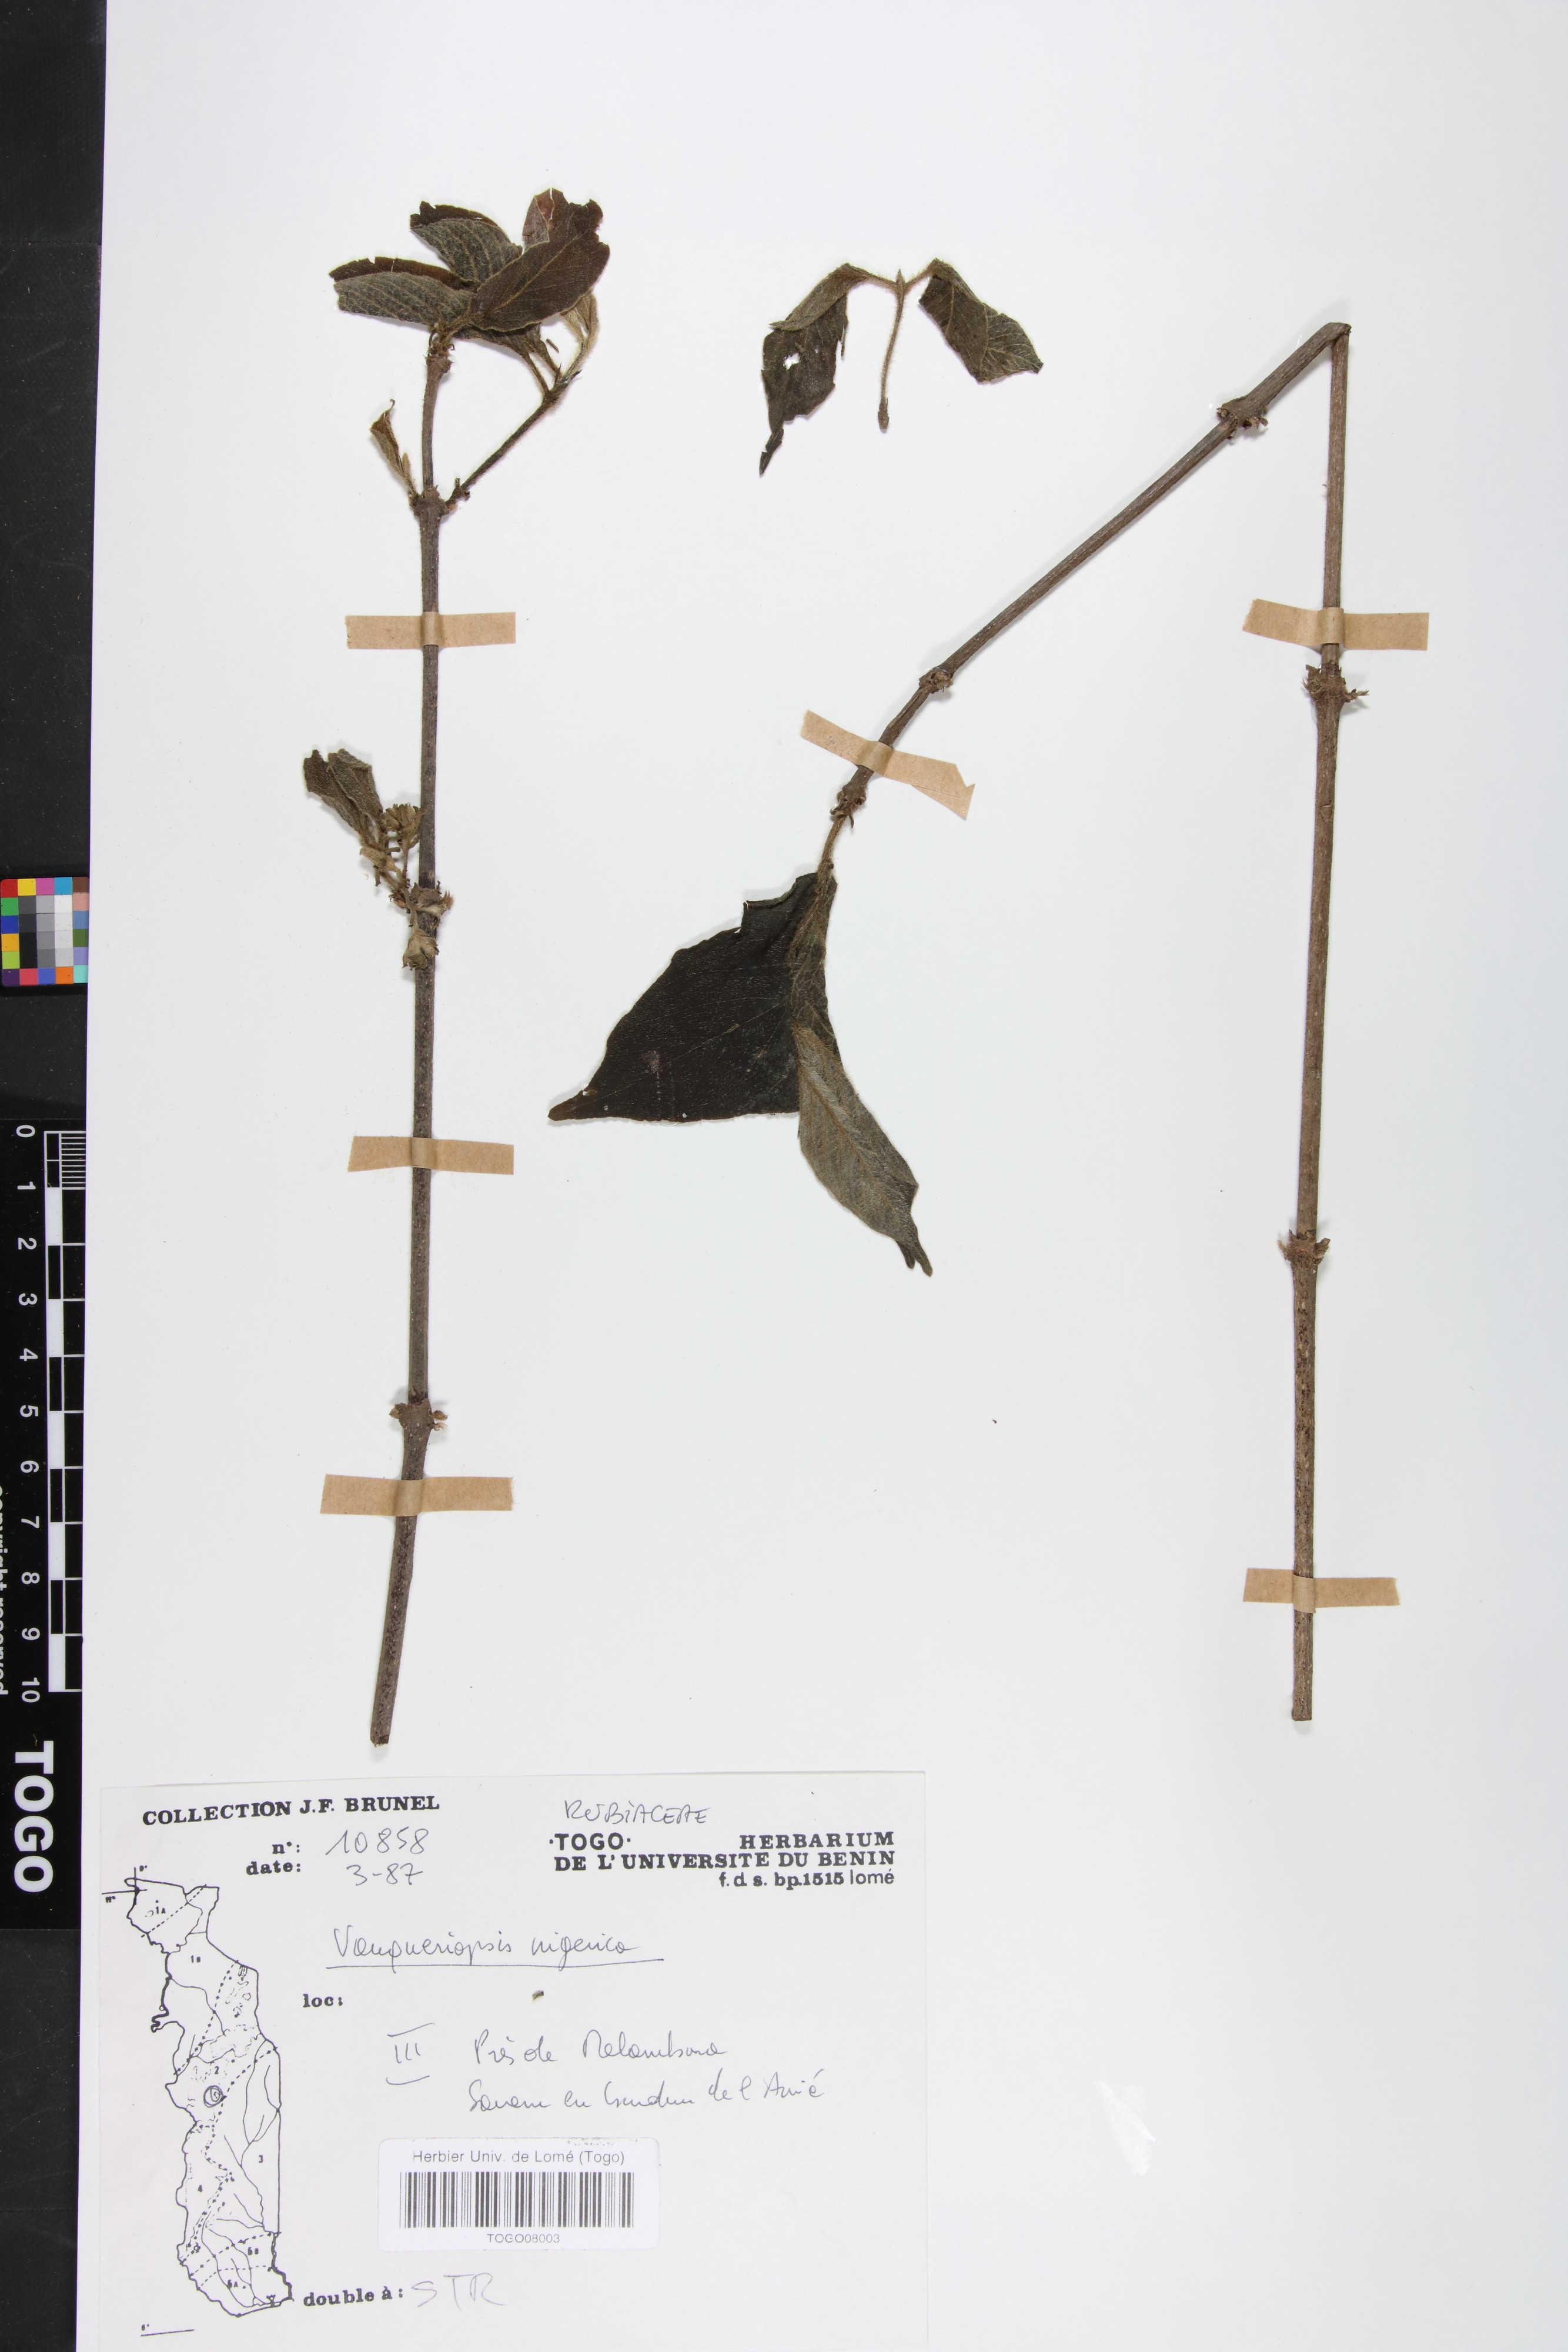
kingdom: Plantae
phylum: Tracheophyta
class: Magnoliopsida
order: Gentianales
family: Rubiaceae
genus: Vangueriella
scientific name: Vangueriella nigerica
